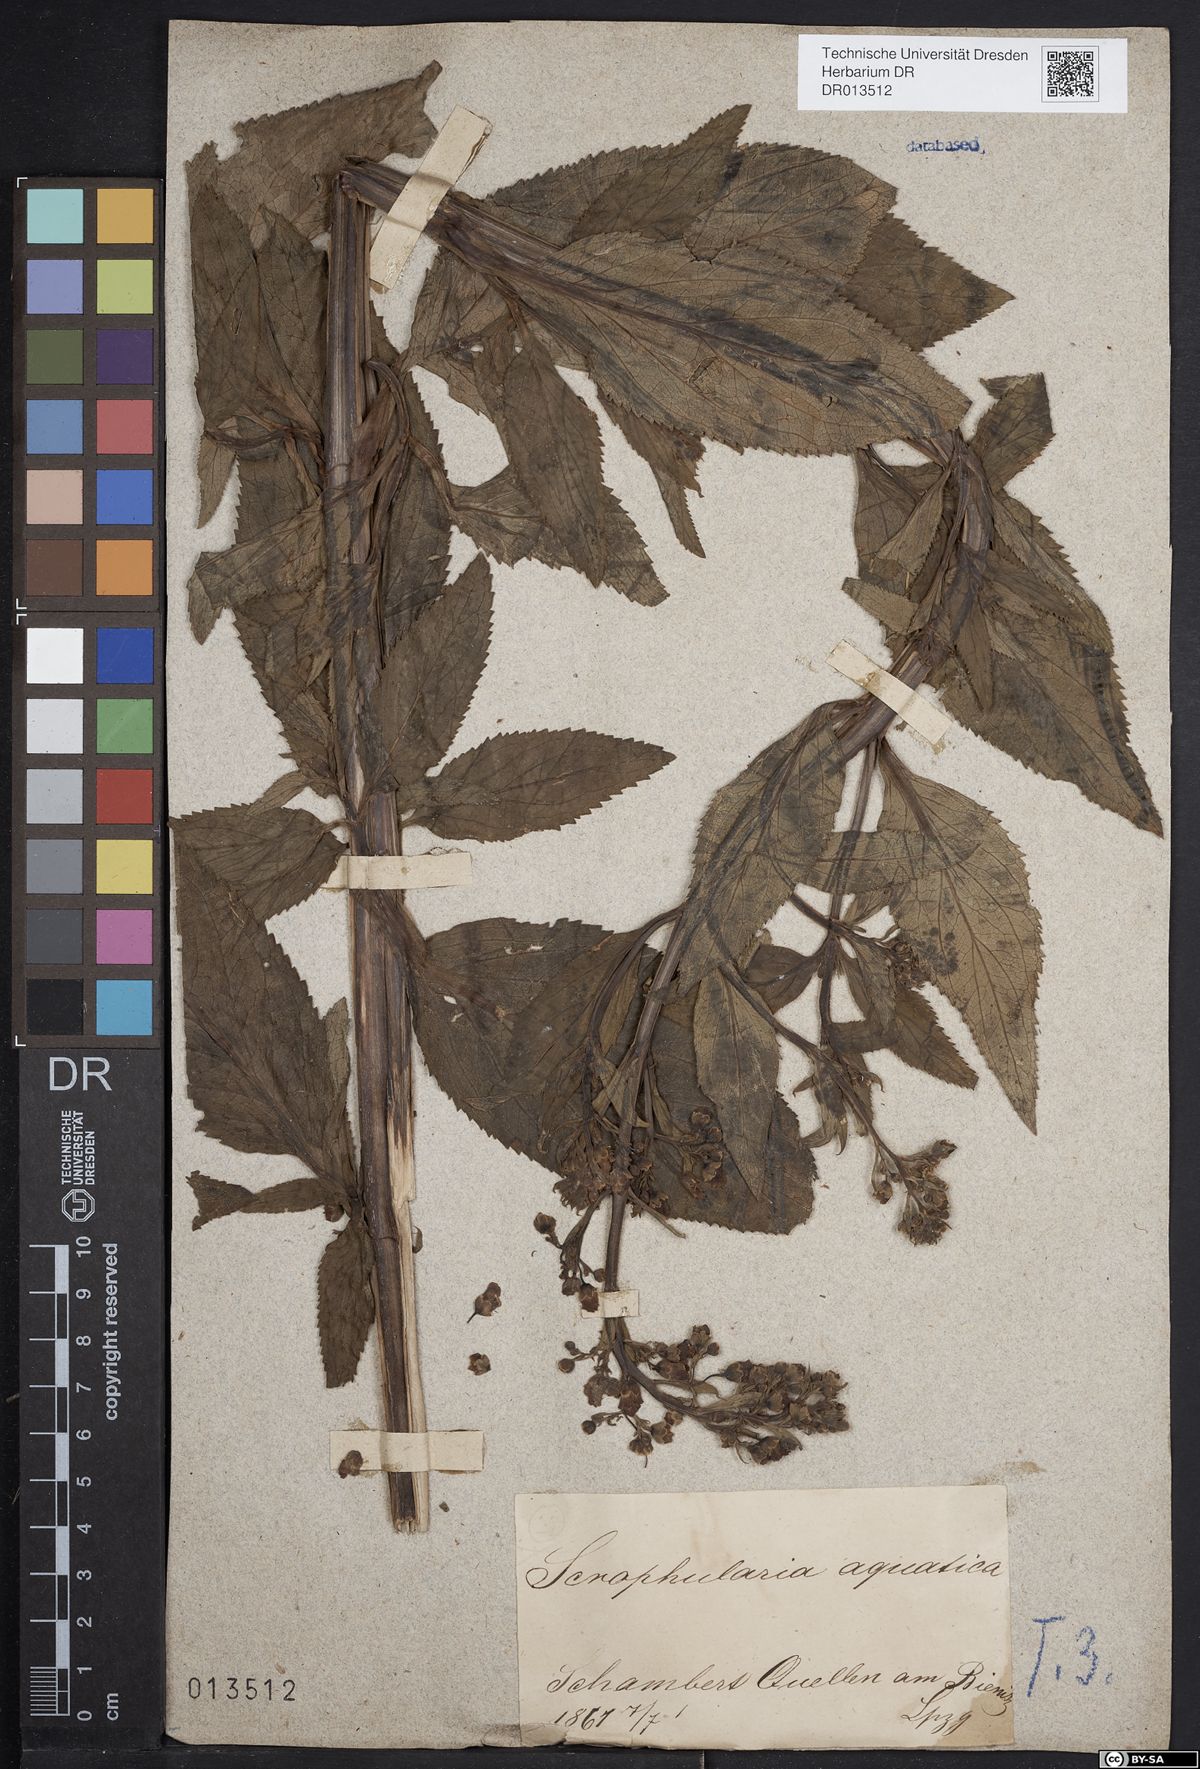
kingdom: Plantae
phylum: Tracheophyta
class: Magnoliopsida
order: Lamiales
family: Scrophulariaceae
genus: Scrophularia
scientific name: Scrophularia umbrosa
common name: Green figwort
